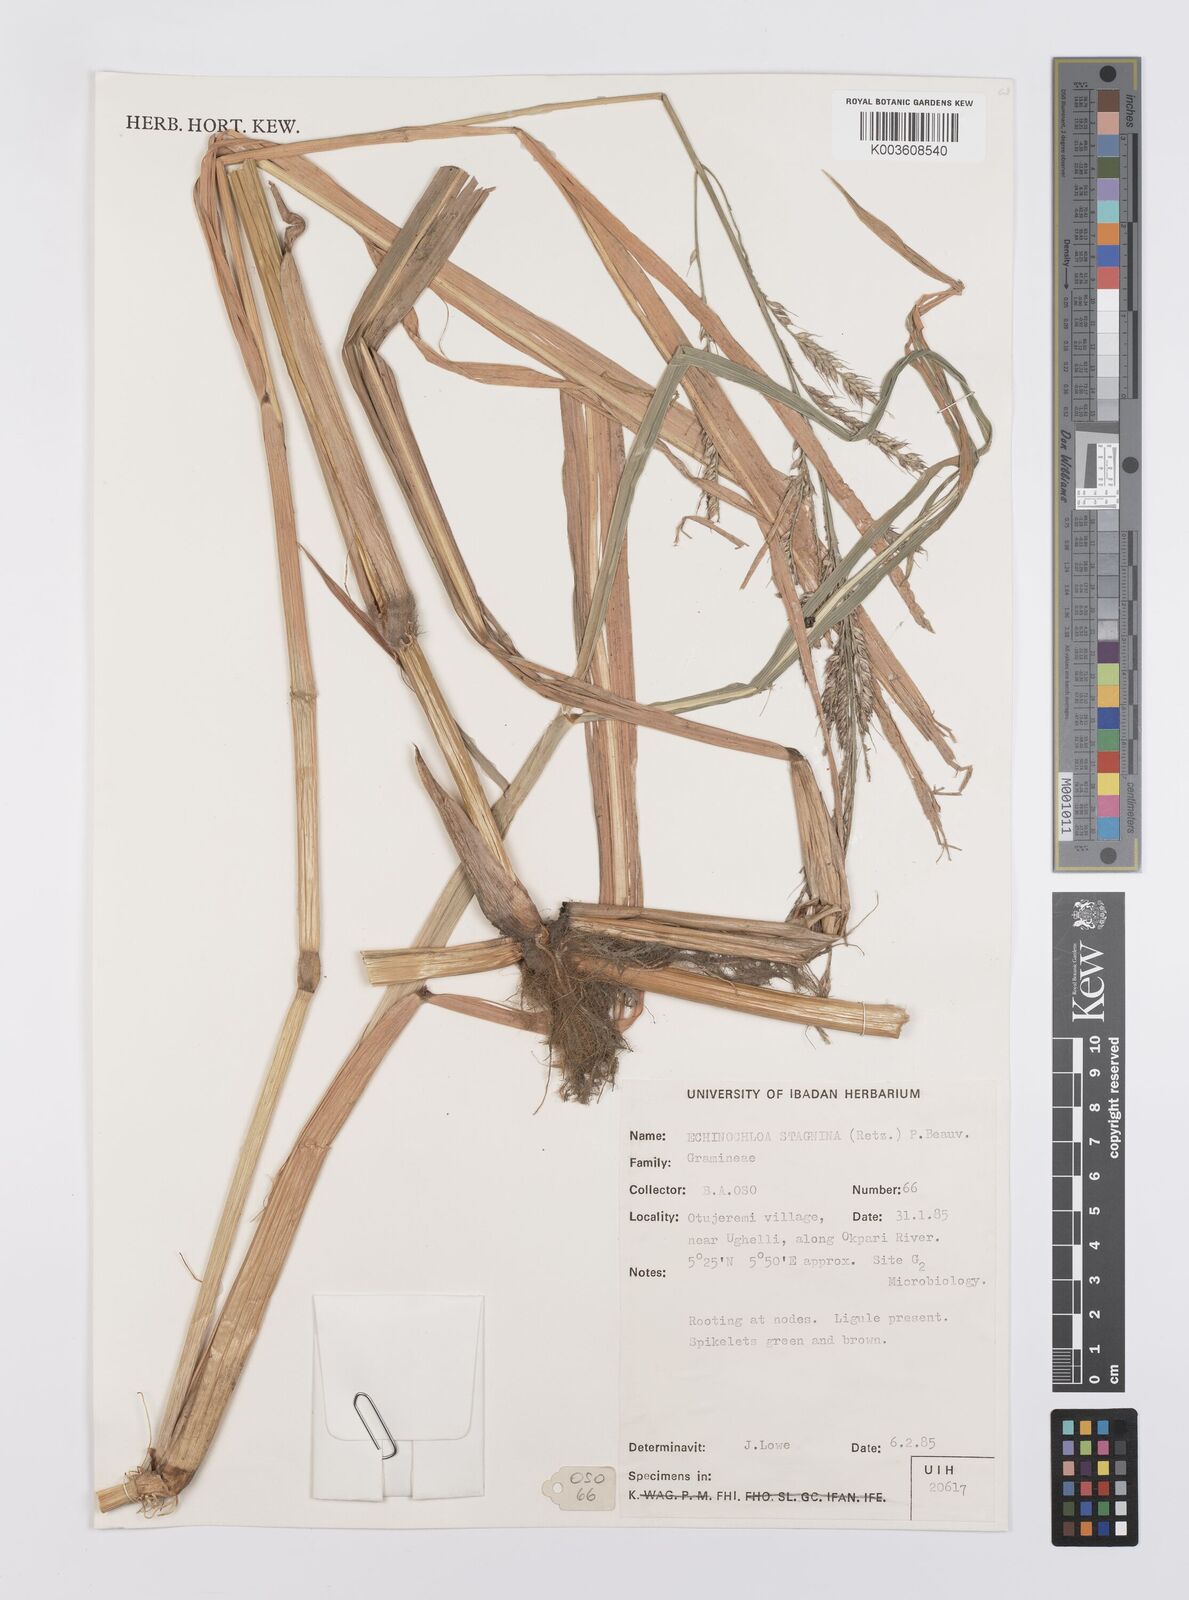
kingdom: Plantae
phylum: Tracheophyta
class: Liliopsida
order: Poales
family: Poaceae
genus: Echinochloa
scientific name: Echinochloa stagnina
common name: Burgu grass
